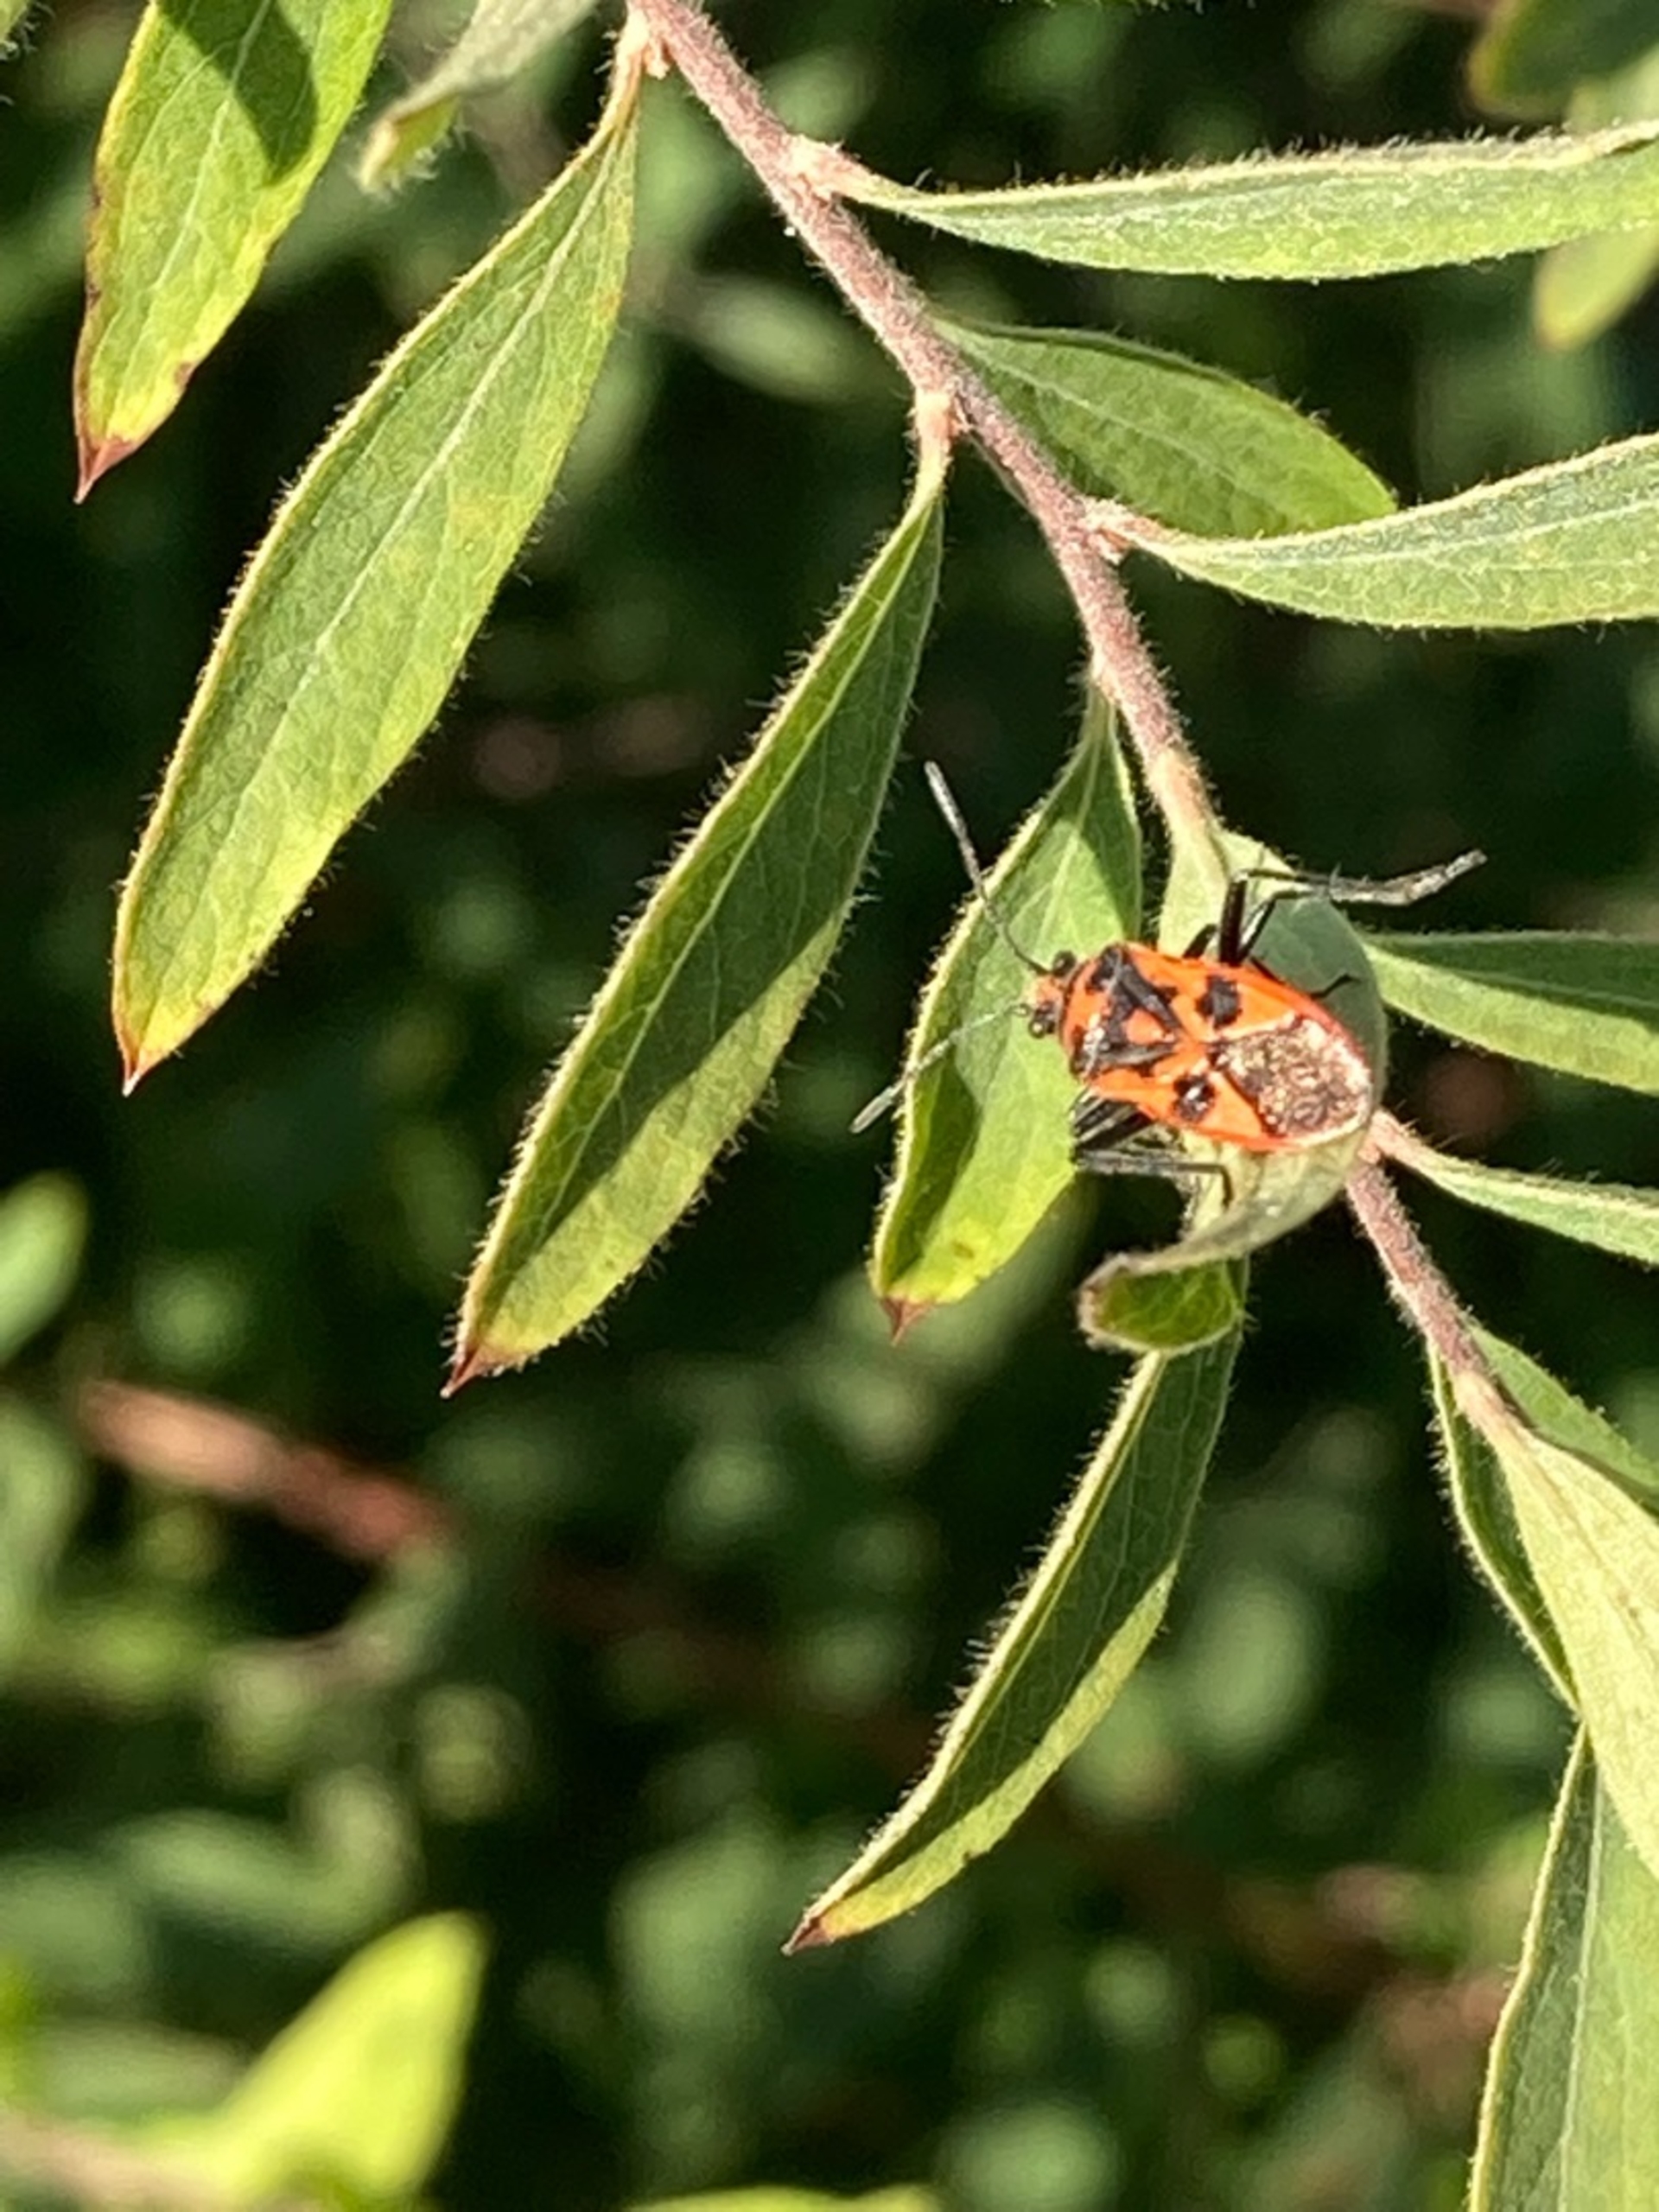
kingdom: Animalia
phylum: Arthropoda
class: Insecta
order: Hemiptera
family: Rhopalidae
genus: Corizus
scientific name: Corizus hyoscyami
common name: Rød kanttæge
